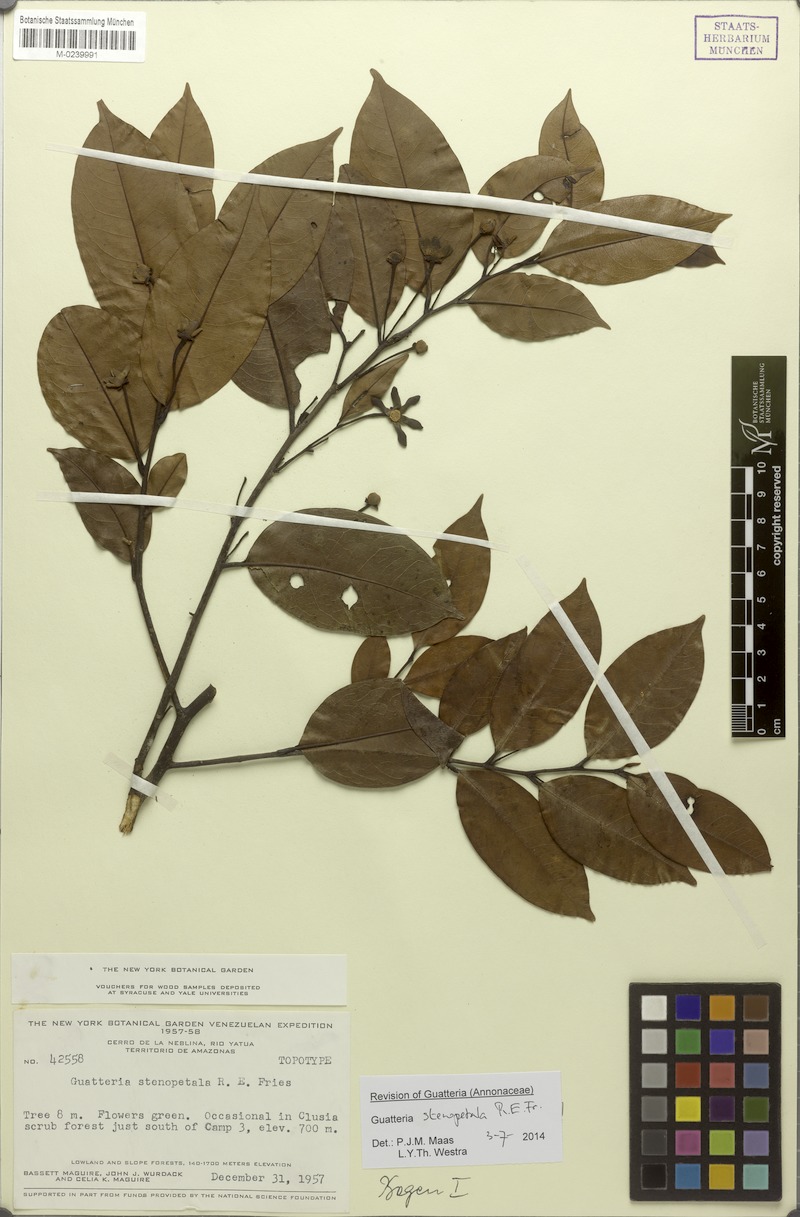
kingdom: Plantae
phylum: Tracheophyta
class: Magnoliopsida
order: Magnoliales
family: Annonaceae
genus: Guatteria
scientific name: Guatteria stenopetala
